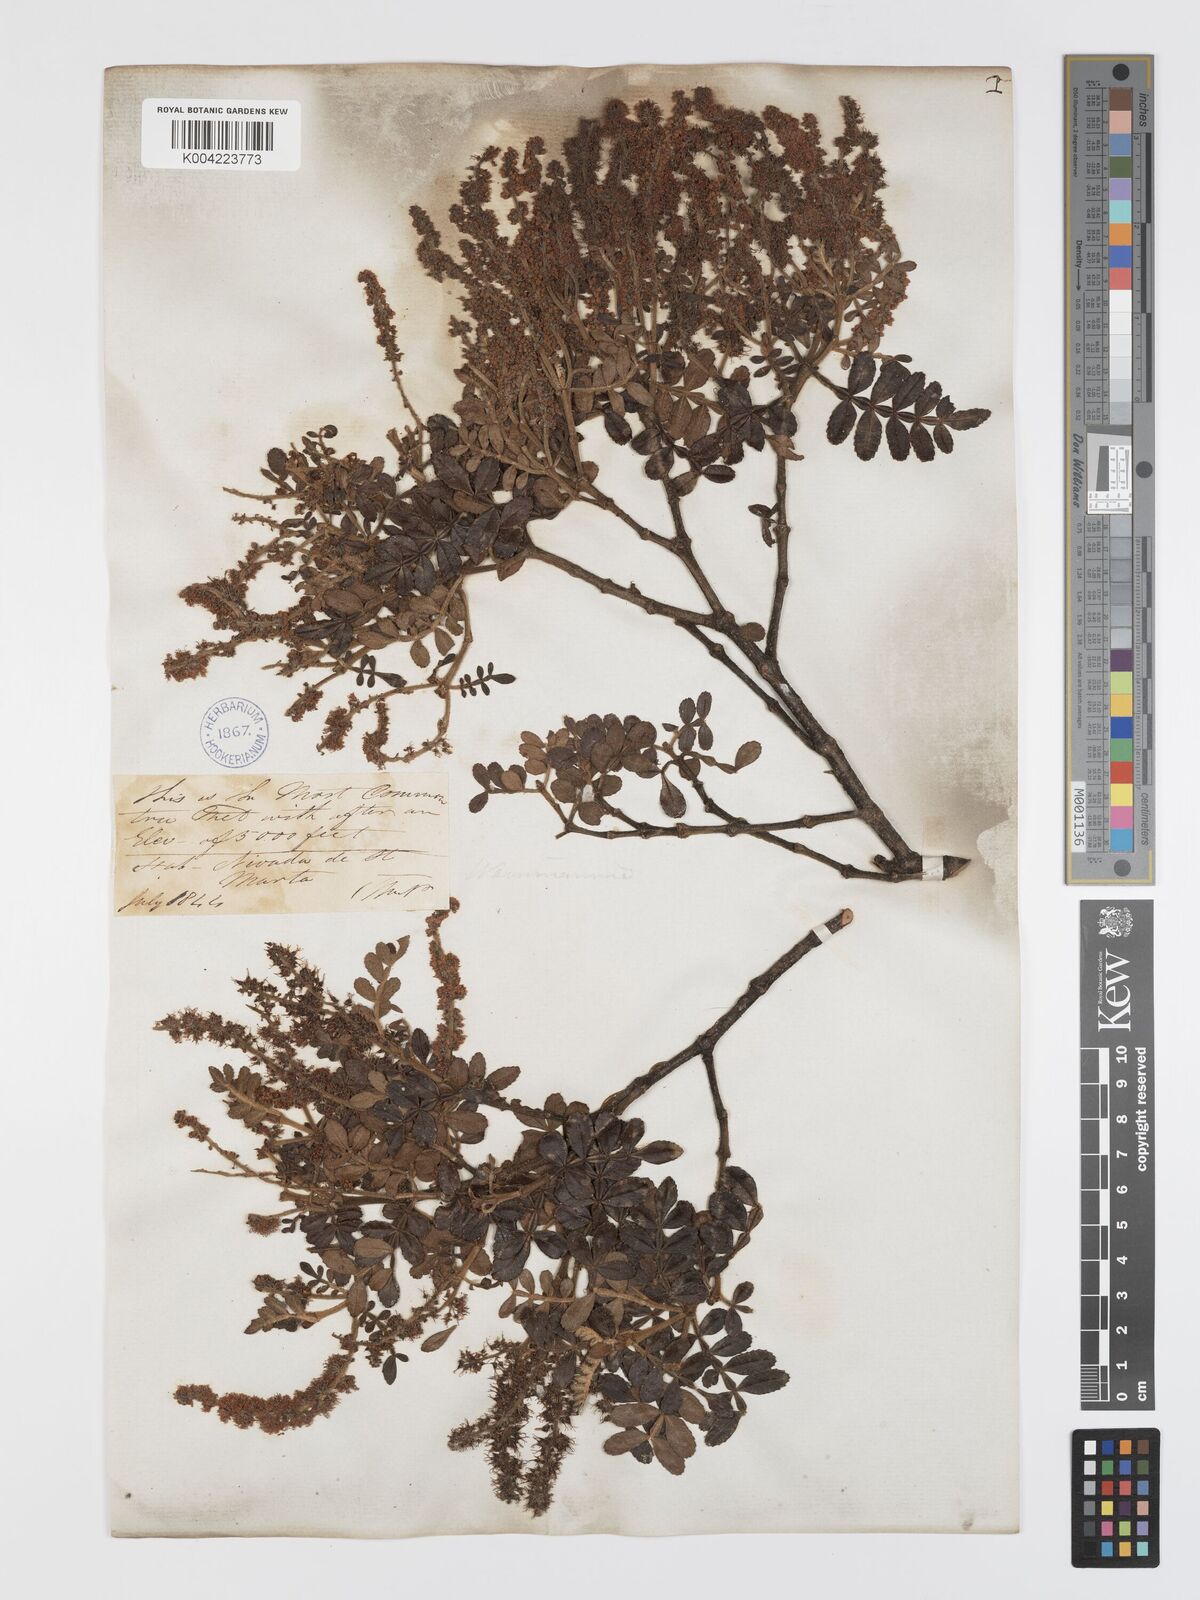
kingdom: Plantae
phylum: Tracheophyta
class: Magnoliopsida
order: Oxalidales
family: Cunoniaceae
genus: Weinmannia
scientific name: Weinmannia tomentosa
